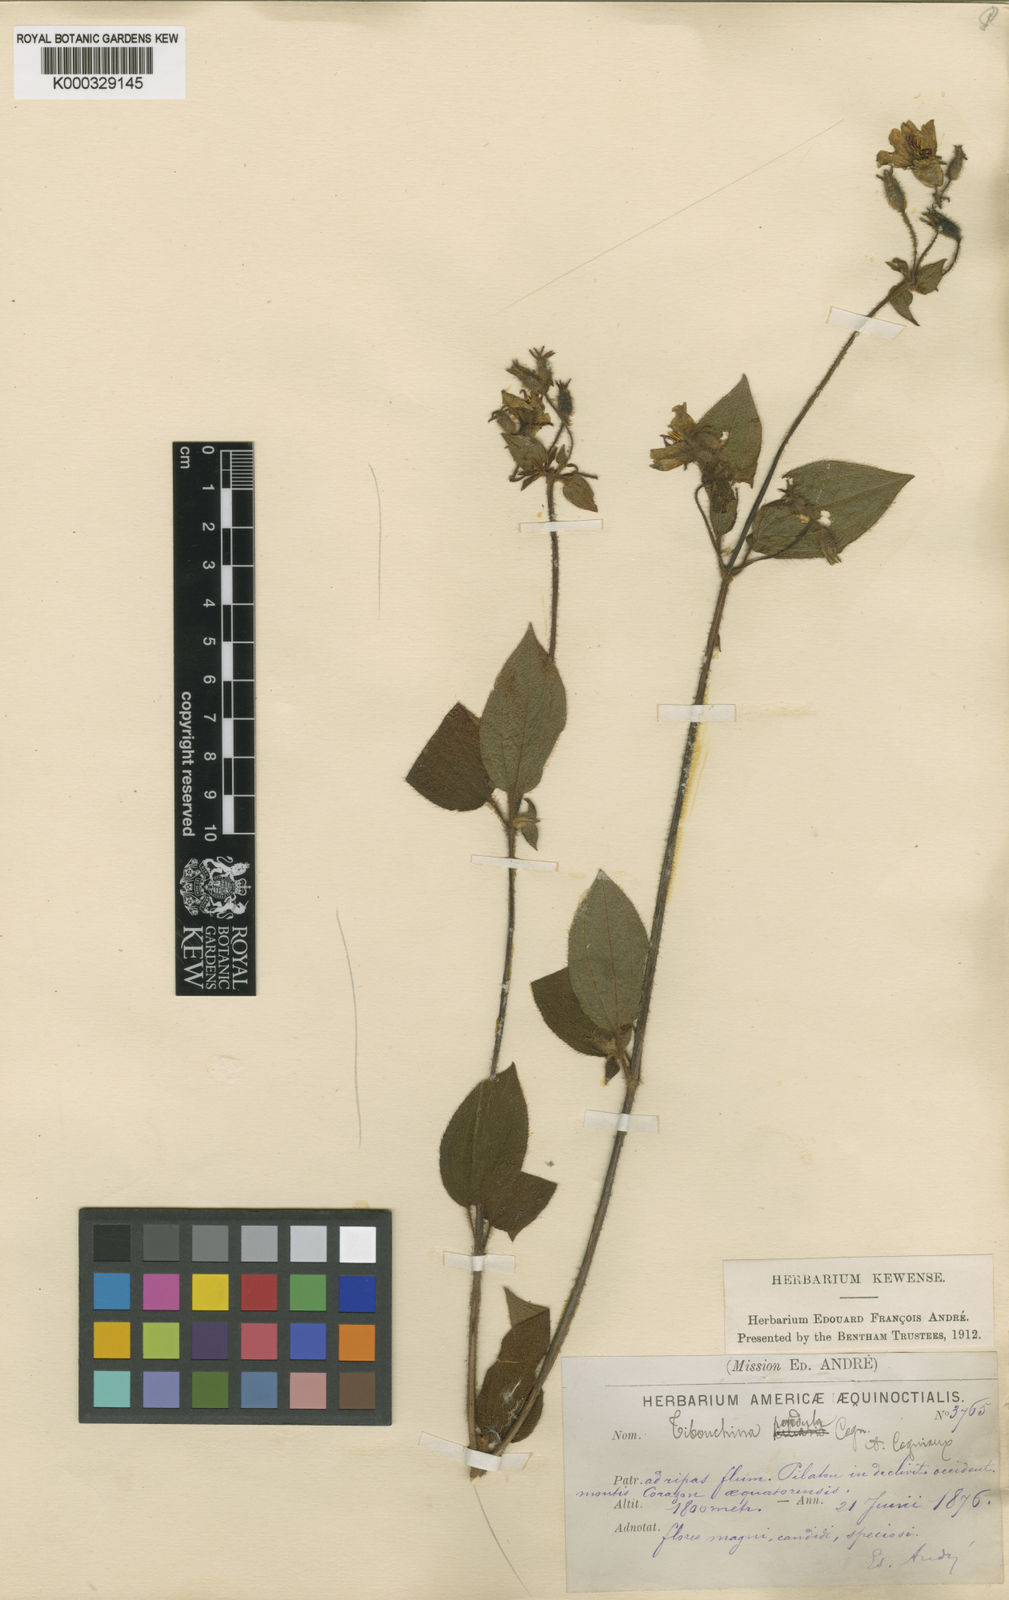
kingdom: Plantae
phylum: Tracheophyta
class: Magnoliopsida
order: Myrtales
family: Melastomataceae
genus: Chaetogastra
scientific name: Chaetogastra pendula
